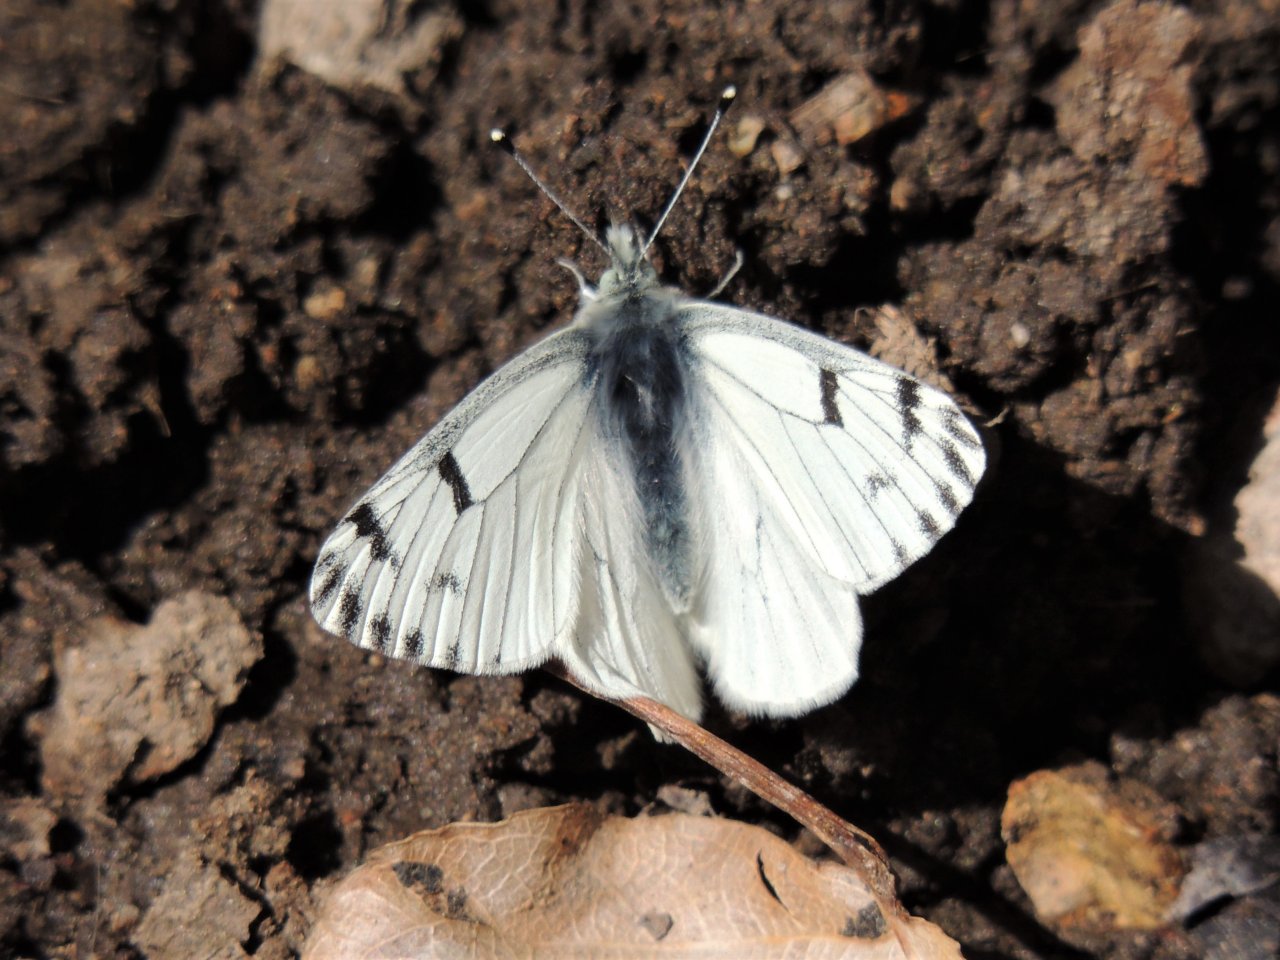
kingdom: Animalia
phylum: Arthropoda
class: Insecta
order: Lepidoptera
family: Pieridae
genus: Pontia
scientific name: Pontia sisymbrii
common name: Spring White
